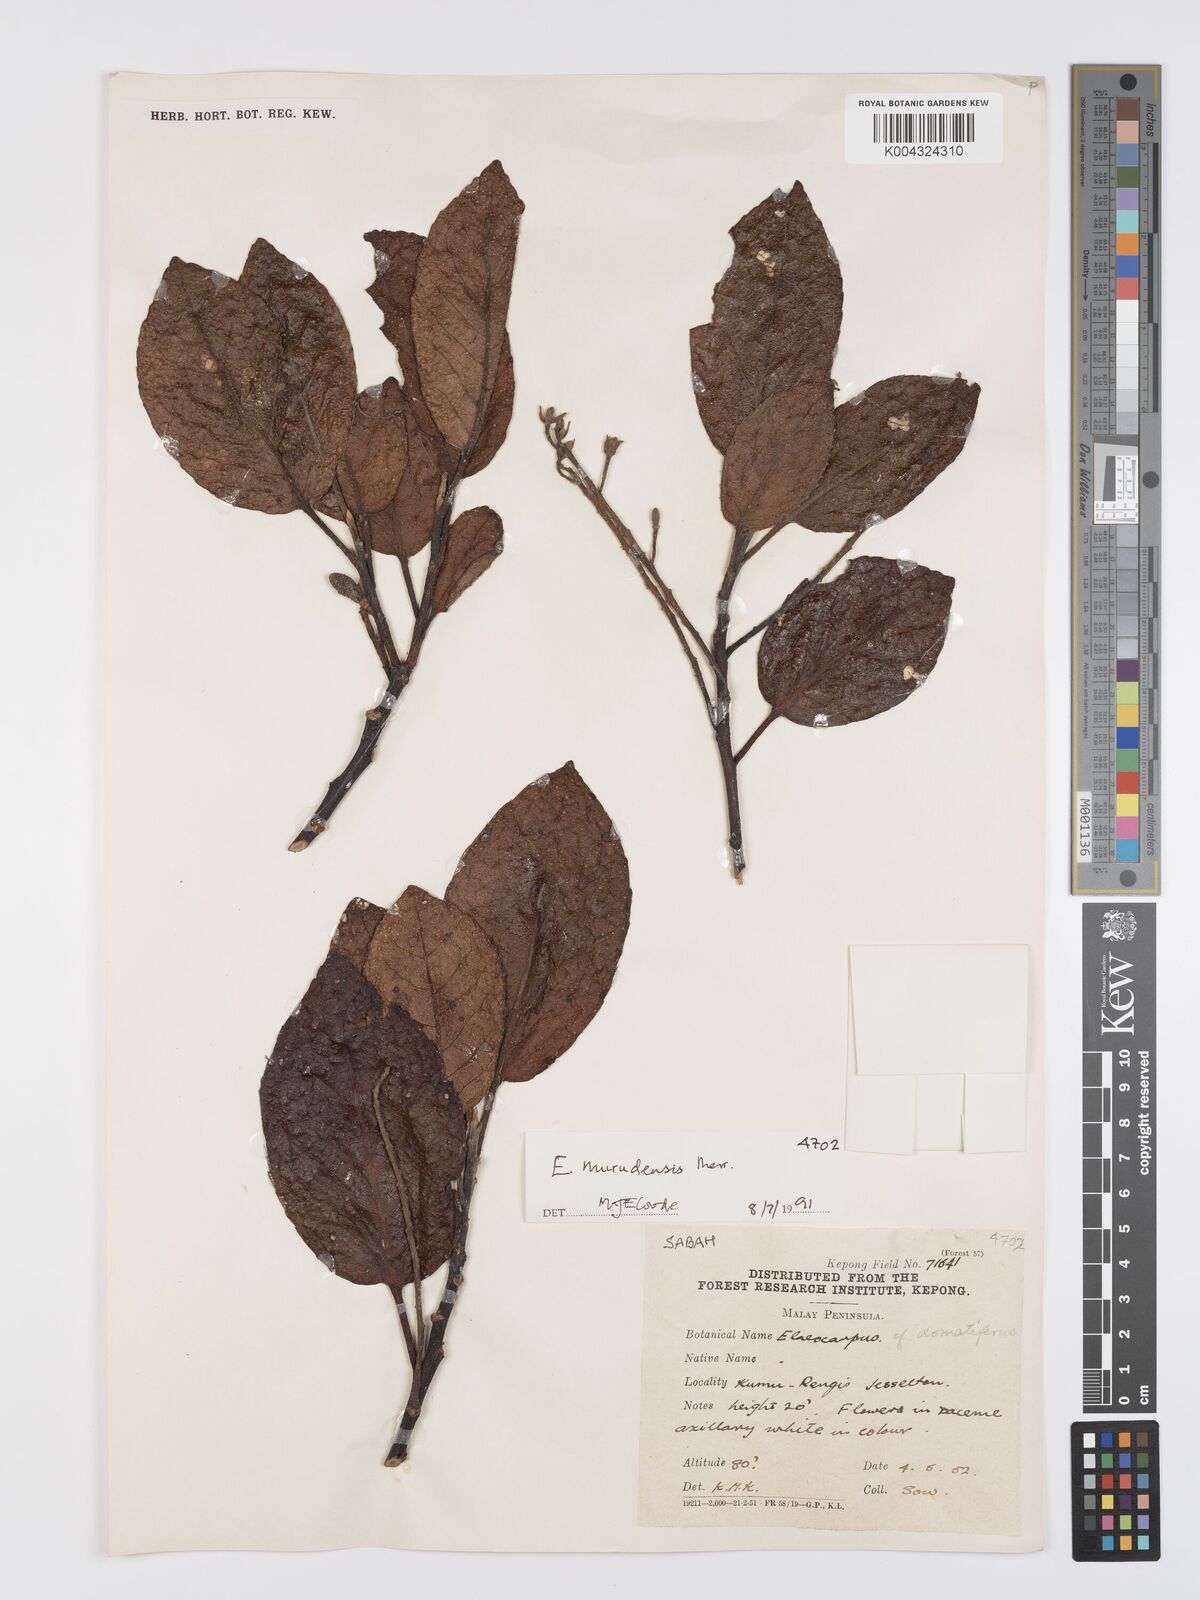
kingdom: Plantae
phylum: Tracheophyta
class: Magnoliopsida
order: Oxalidales
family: Elaeocarpaceae
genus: Elaeocarpus
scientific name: Elaeocarpus murudensis
